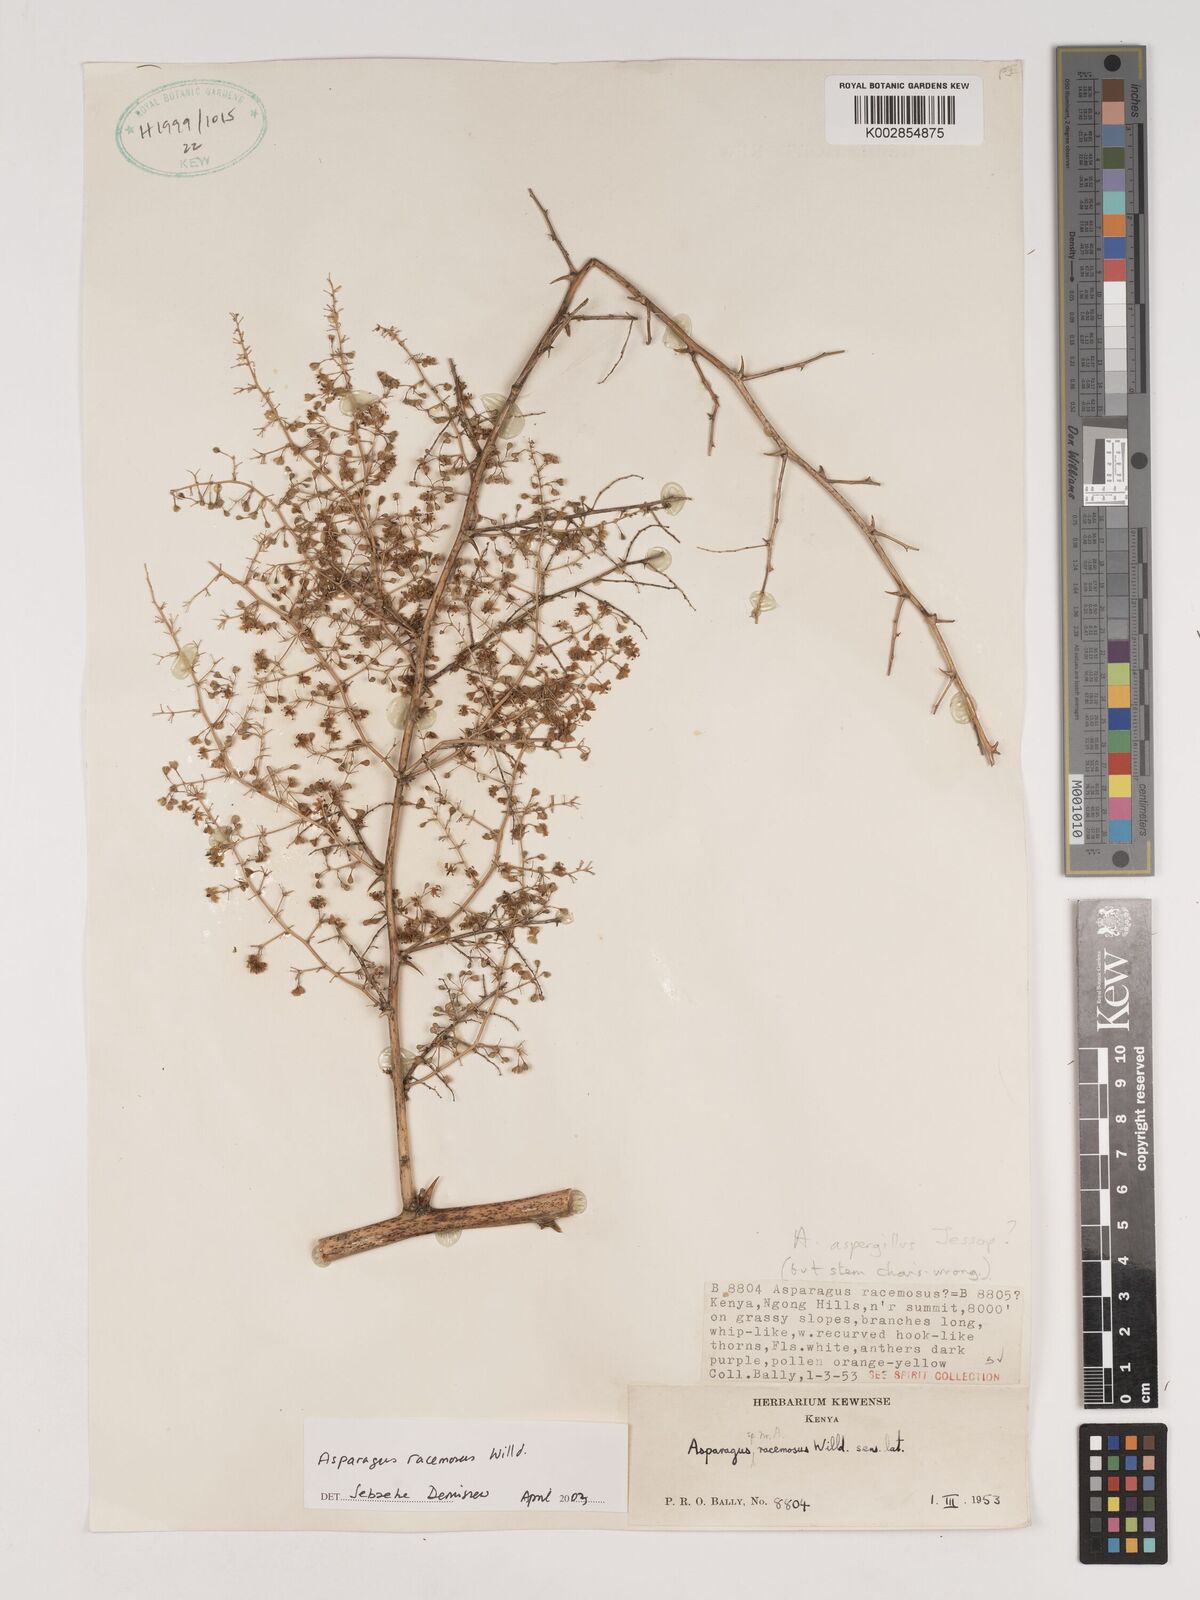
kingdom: Plantae
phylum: Tracheophyta
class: Liliopsida
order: Asparagales
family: Asparagaceae
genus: Asparagus
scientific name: Asparagus racemosus
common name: Asparagus-fern
